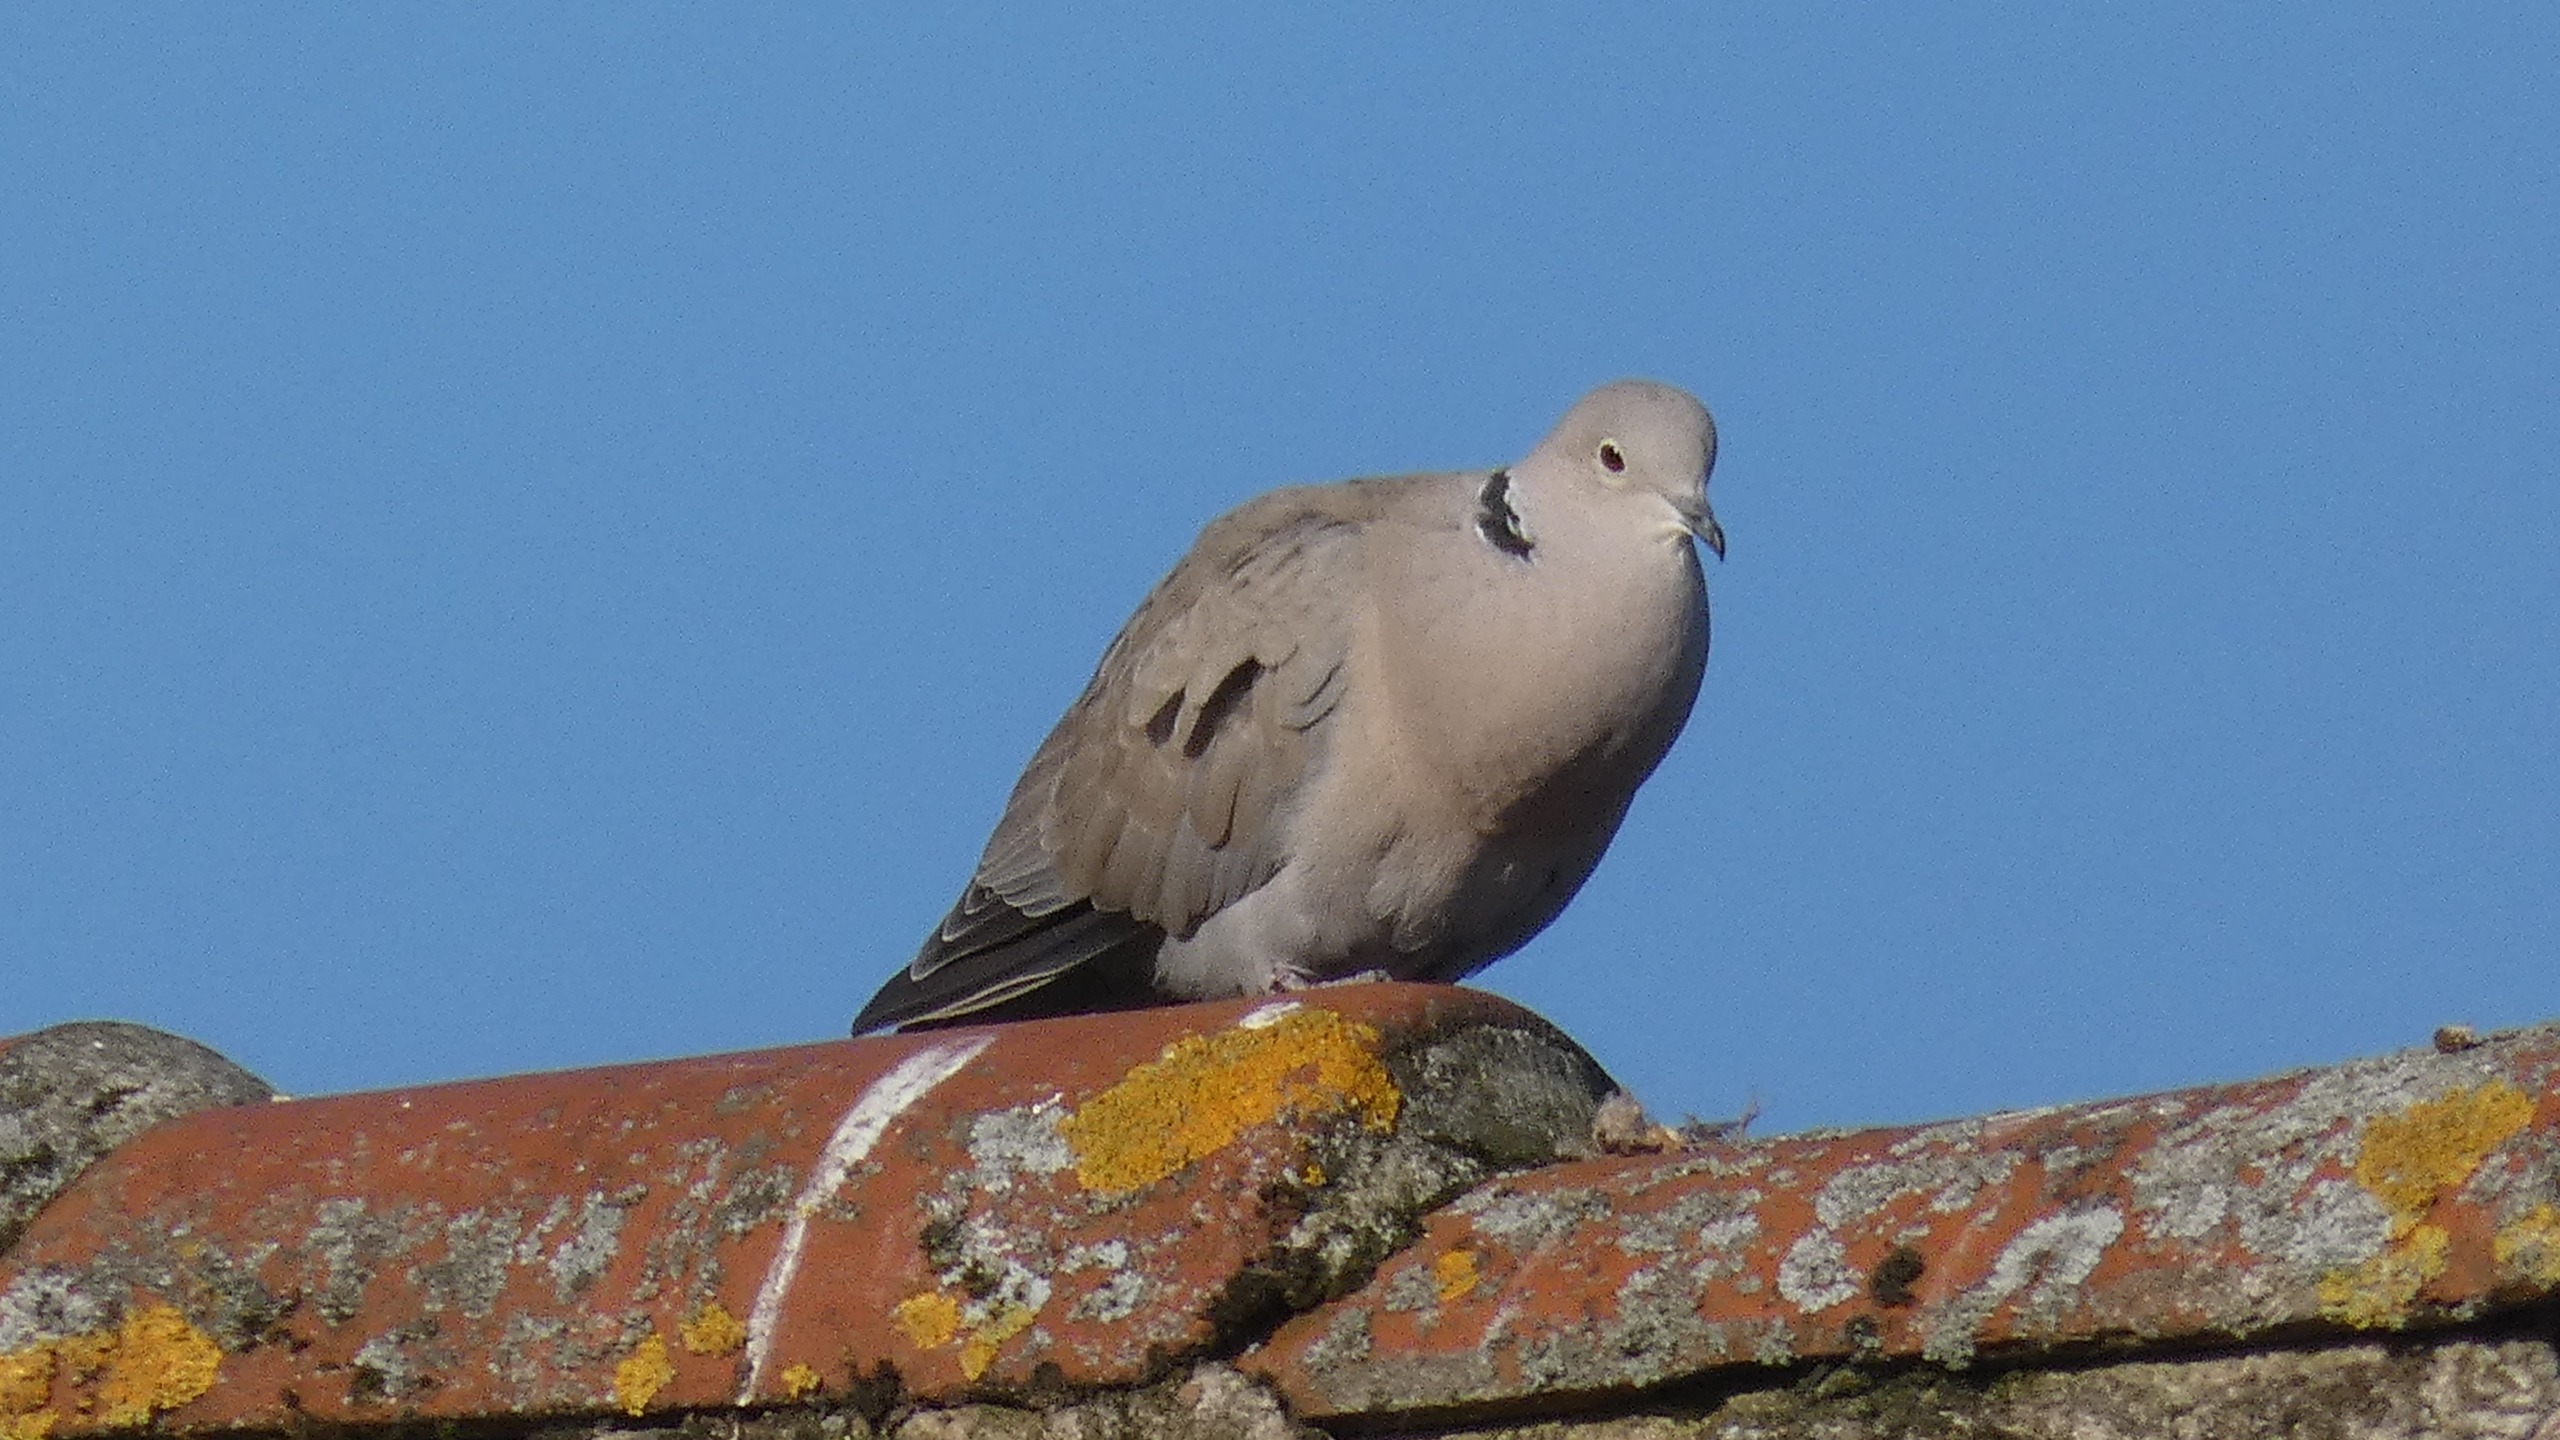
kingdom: Animalia
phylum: Chordata
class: Aves
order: Columbiformes
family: Columbidae
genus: Streptopelia
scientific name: Streptopelia decaocto
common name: Tyrkerdue
